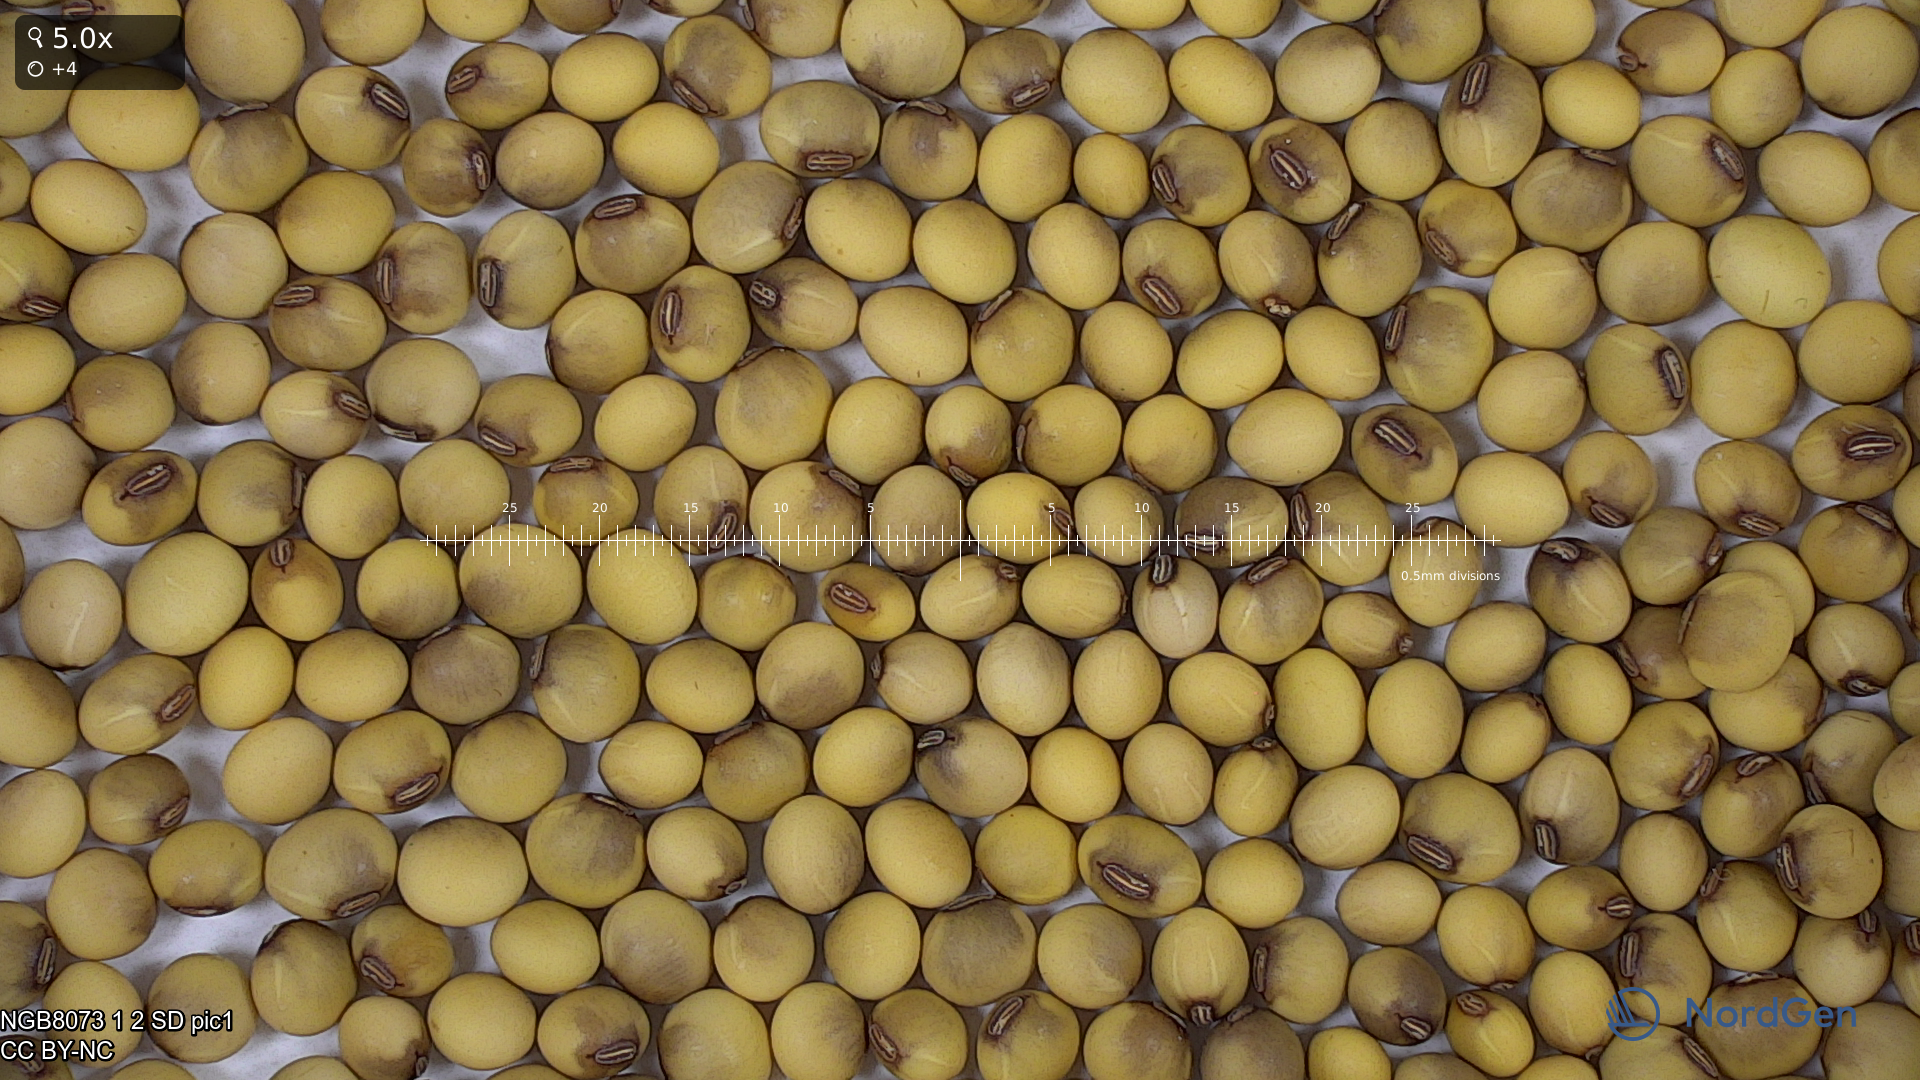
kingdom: Plantae
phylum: Tracheophyta
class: Magnoliopsida
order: Fabales
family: Fabaceae
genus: Glycine
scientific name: Glycine max
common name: Soya-bean
